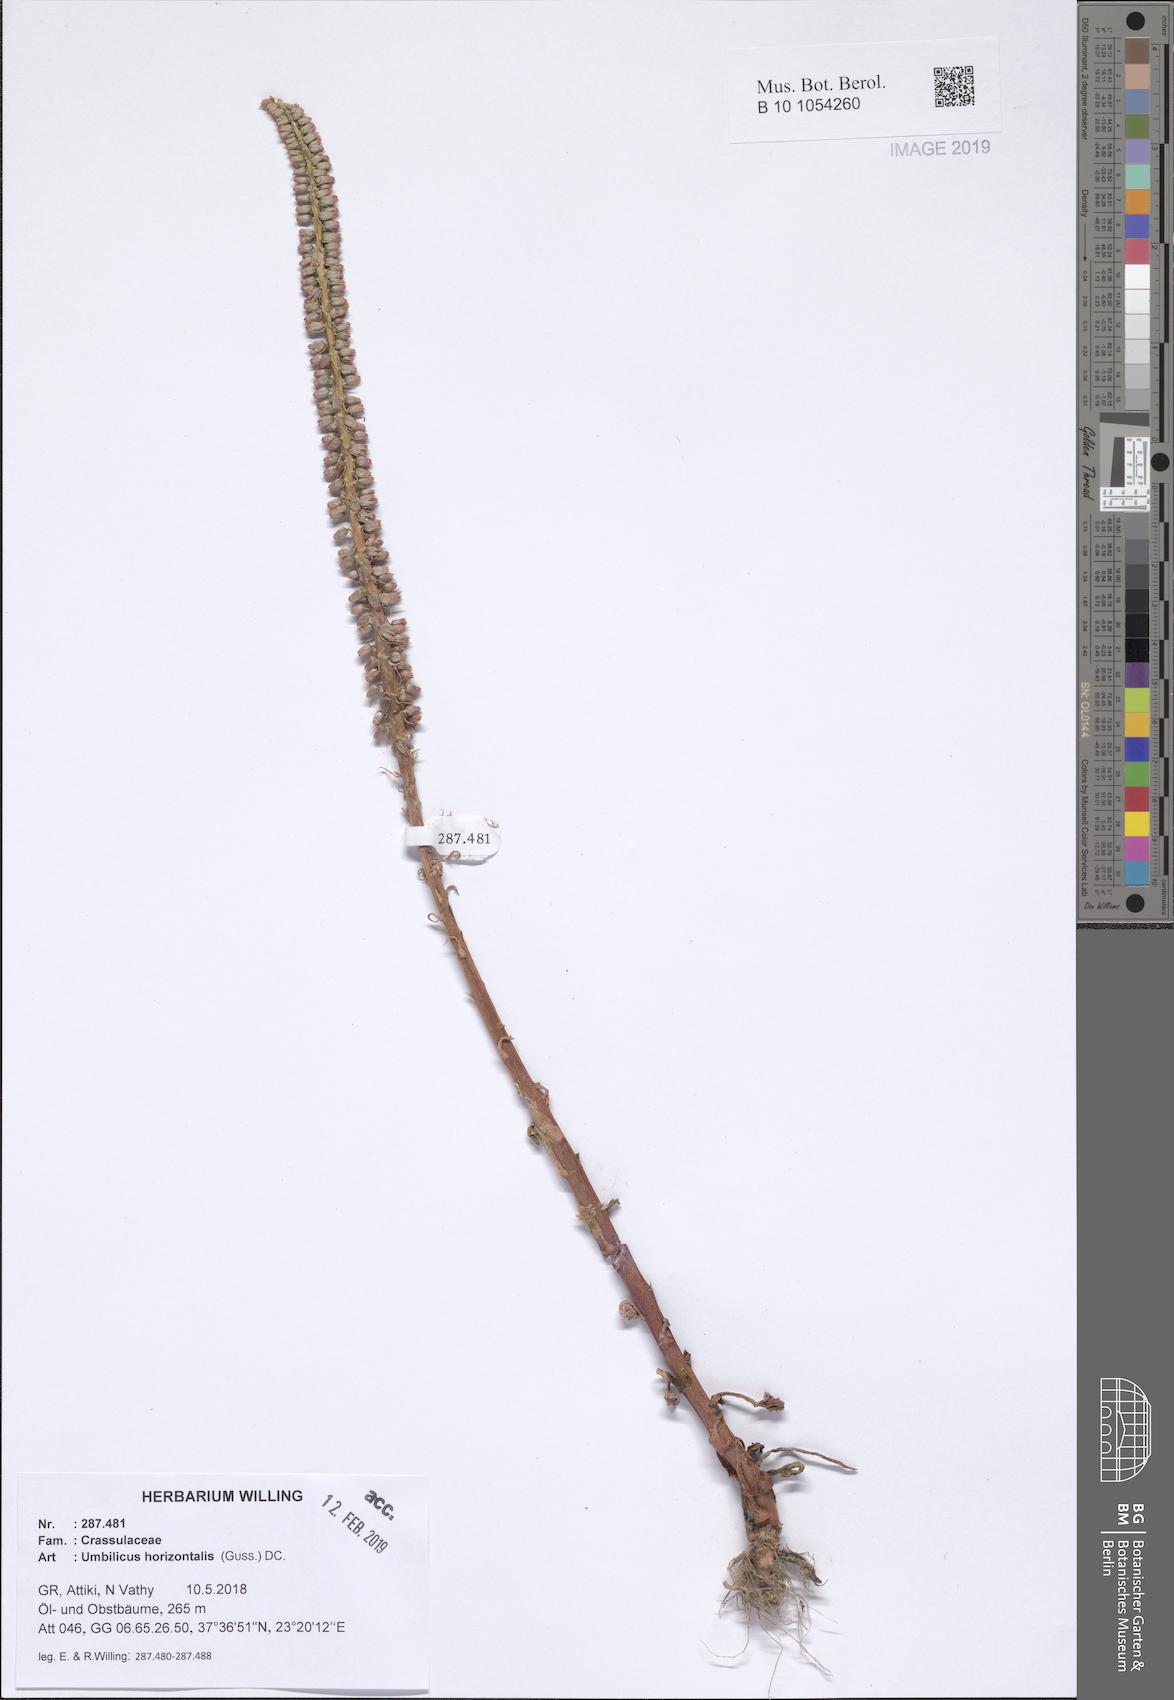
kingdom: Plantae
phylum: Tracheophyta
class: Magnoliopsida
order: Saxifragales
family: Crassulaceae
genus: Umbilicus
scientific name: Umbilicus horizontalis
